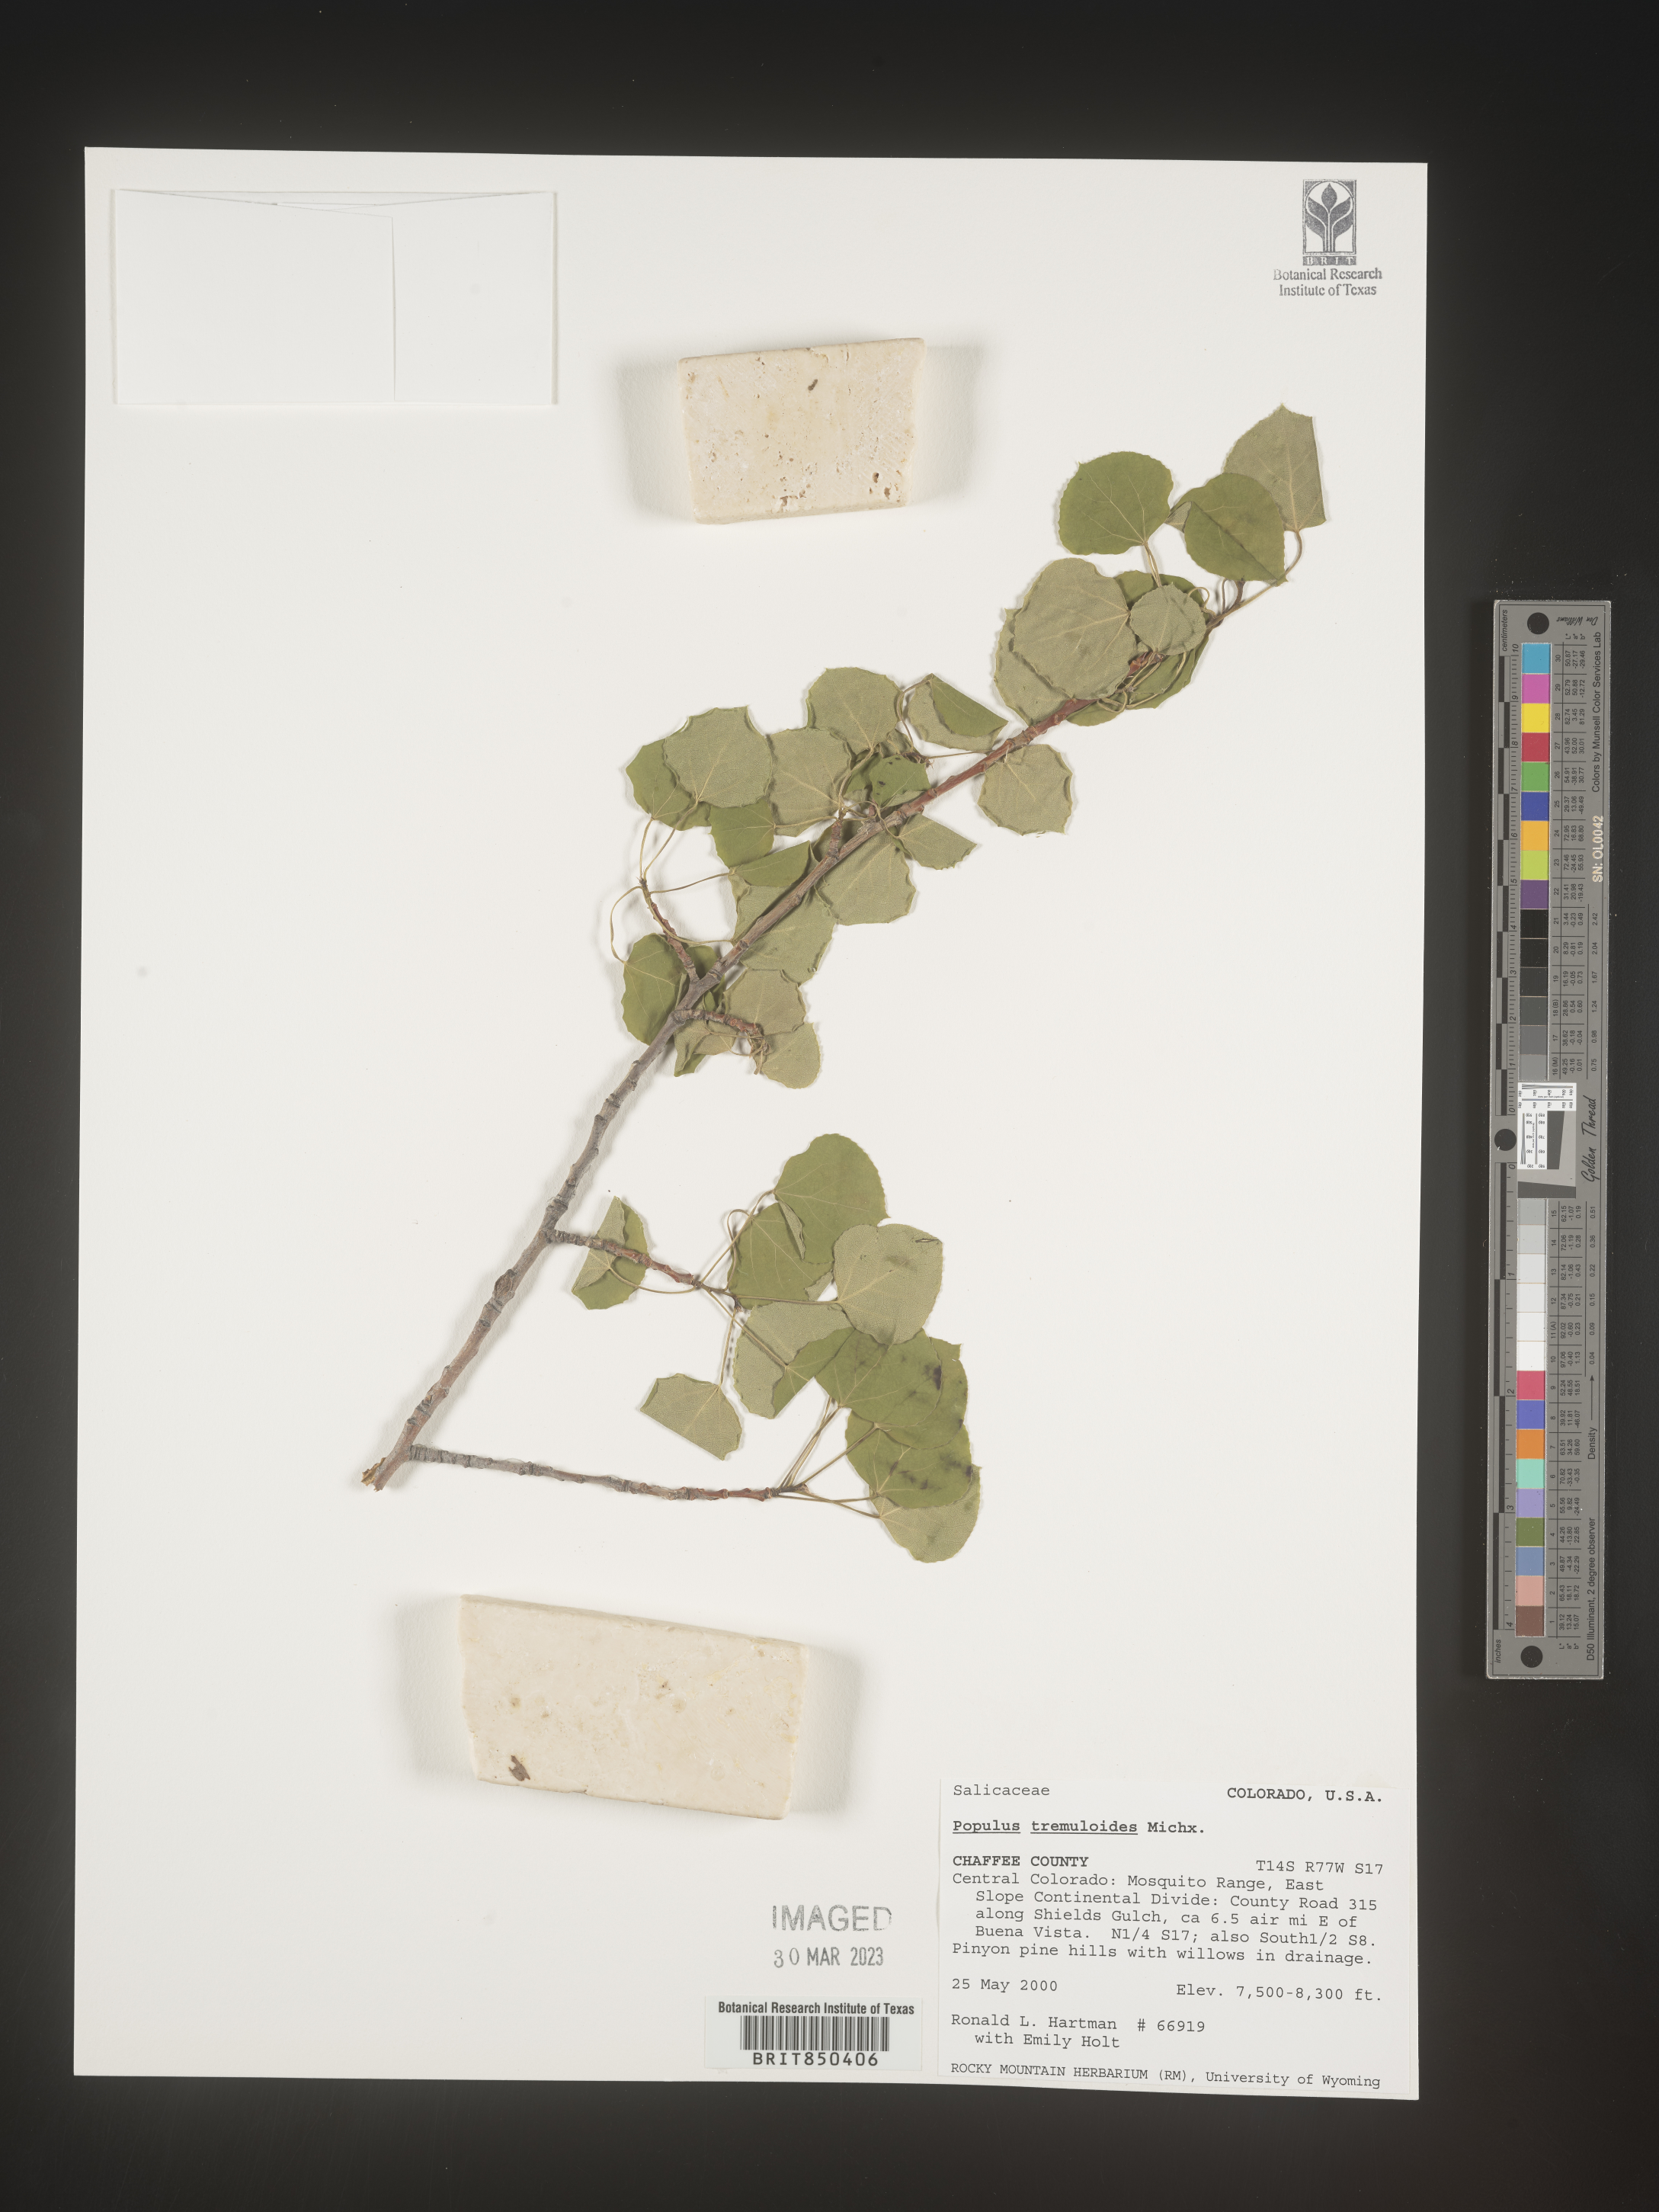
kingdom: Plantae
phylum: Tracheophyta
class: Magnoliopsida
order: Malpighiales
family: Salicaceae
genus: Populus
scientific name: Populus tremuloides
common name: Quaking aspen
